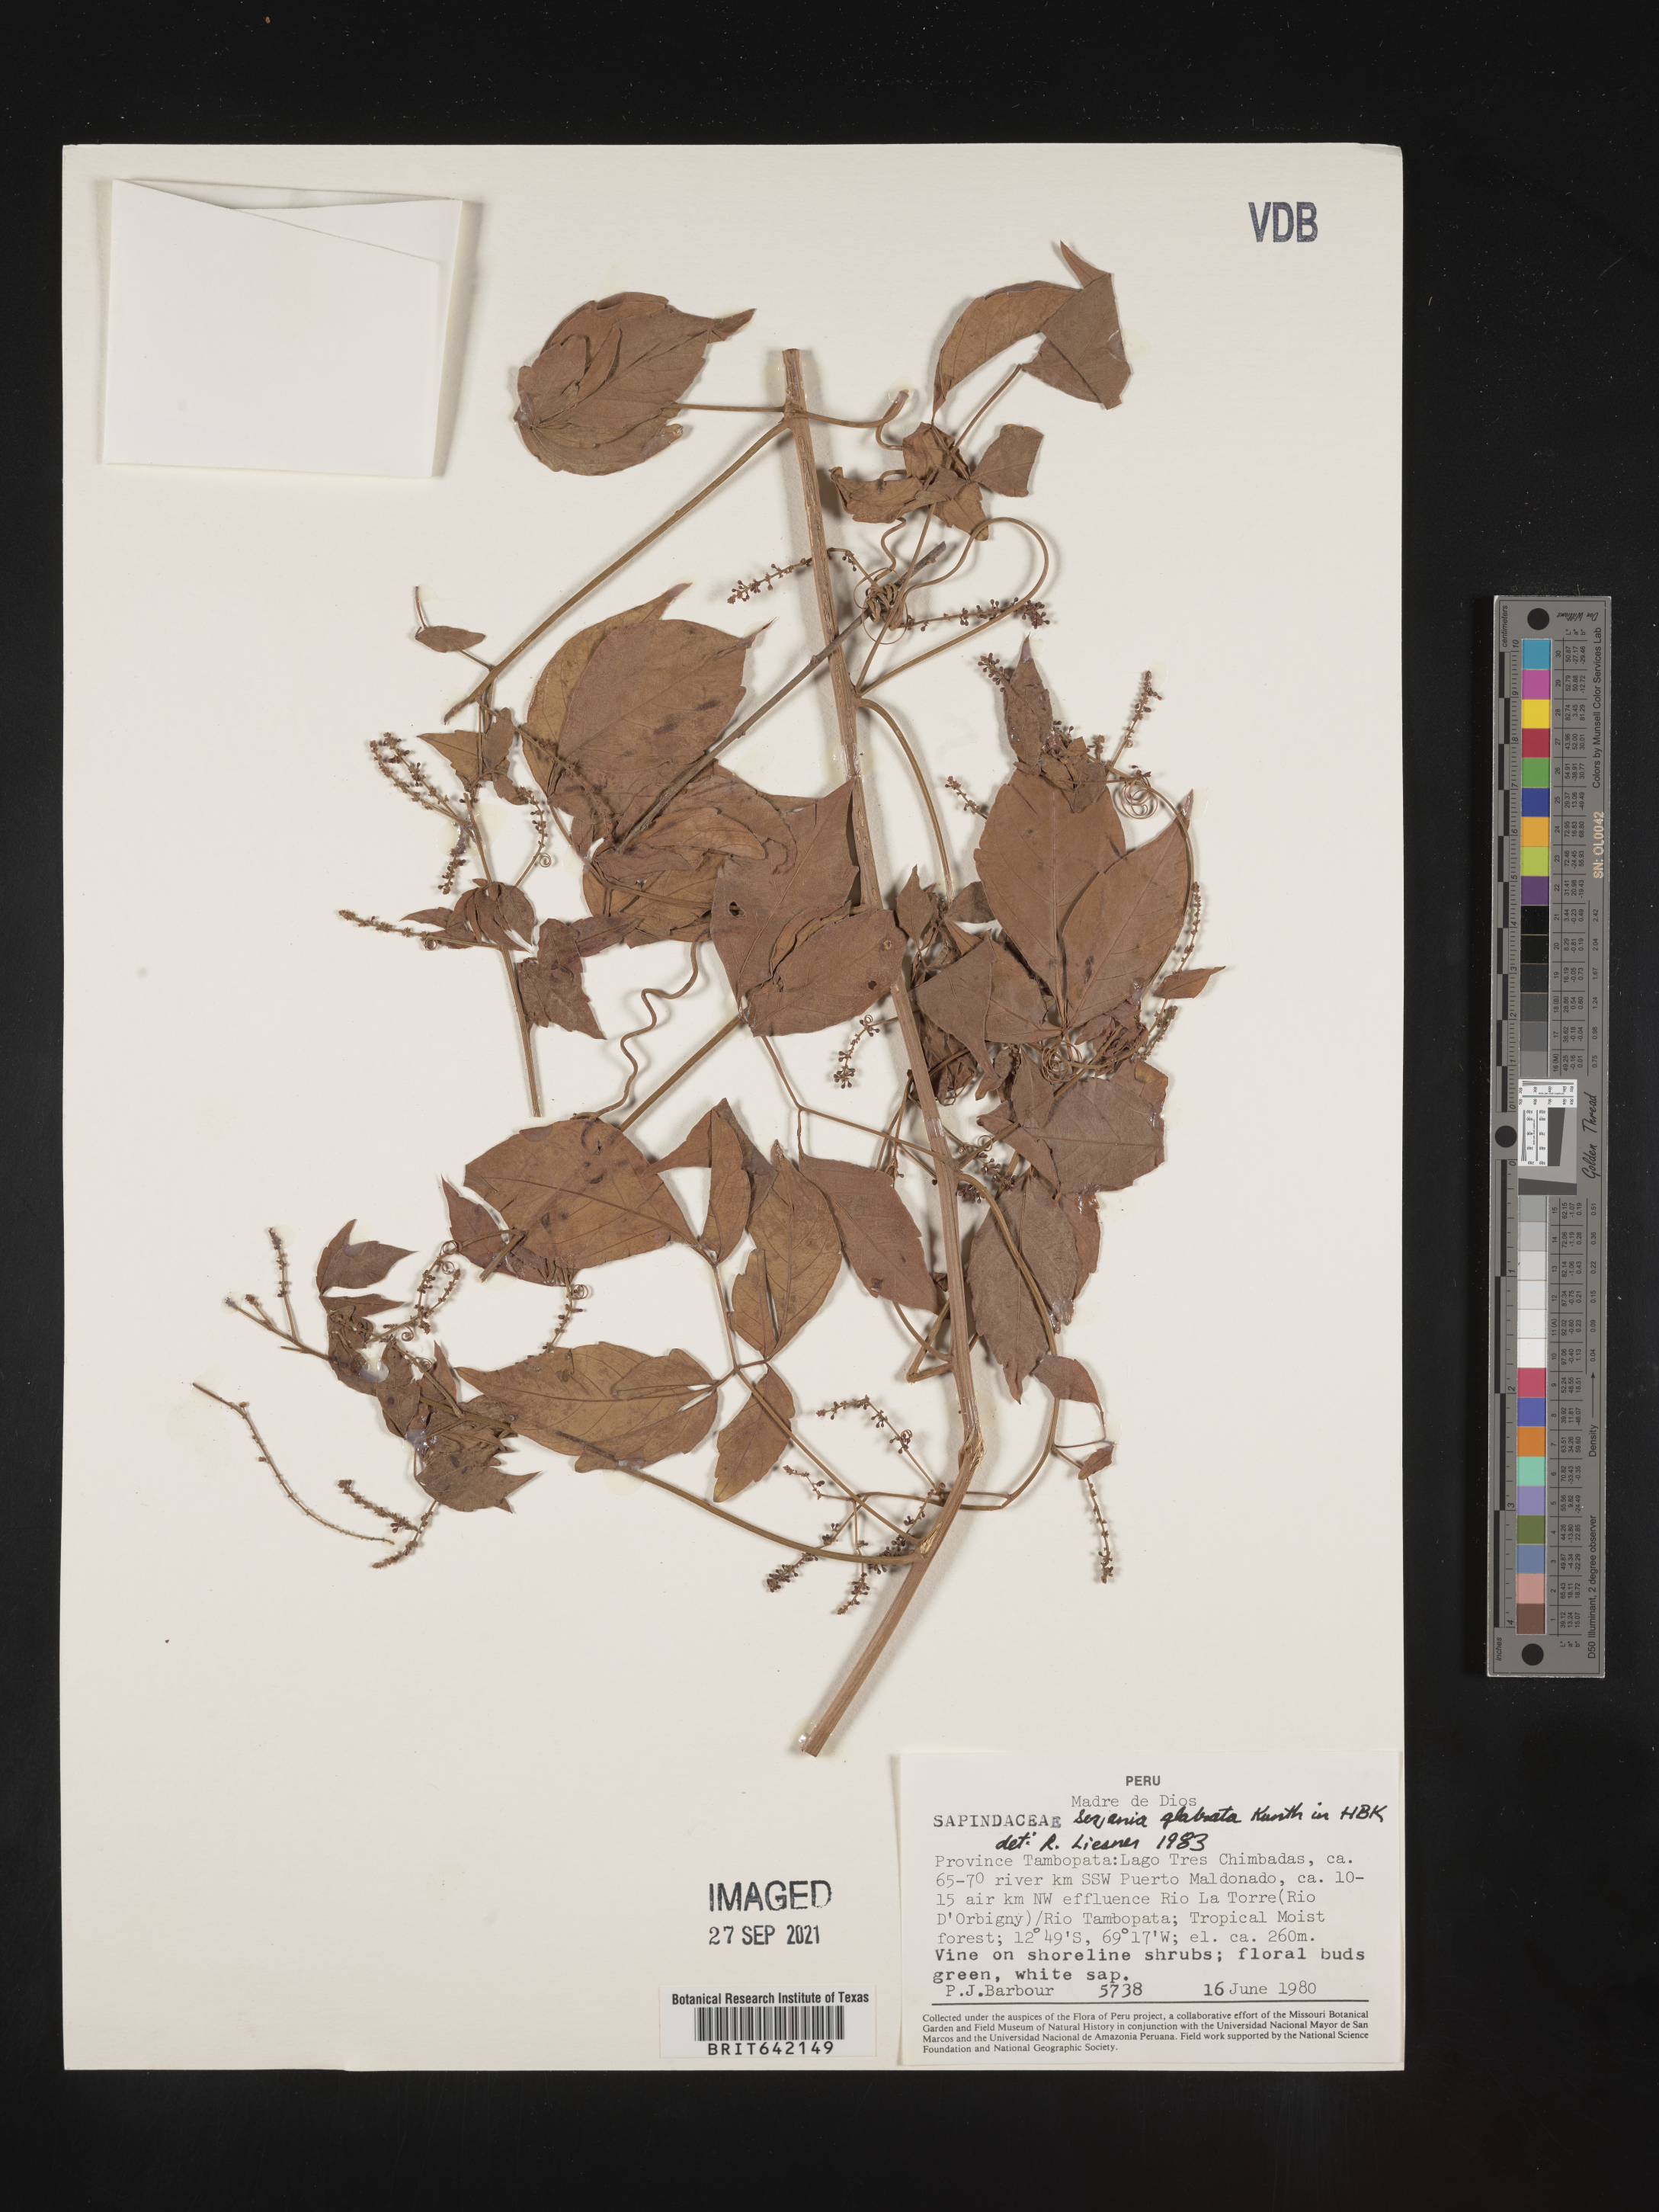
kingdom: Plantae
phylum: Tracheophyta
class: Magnoliopsida
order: Sapindales
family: Sapindaceae
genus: Serjania
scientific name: Serjania
